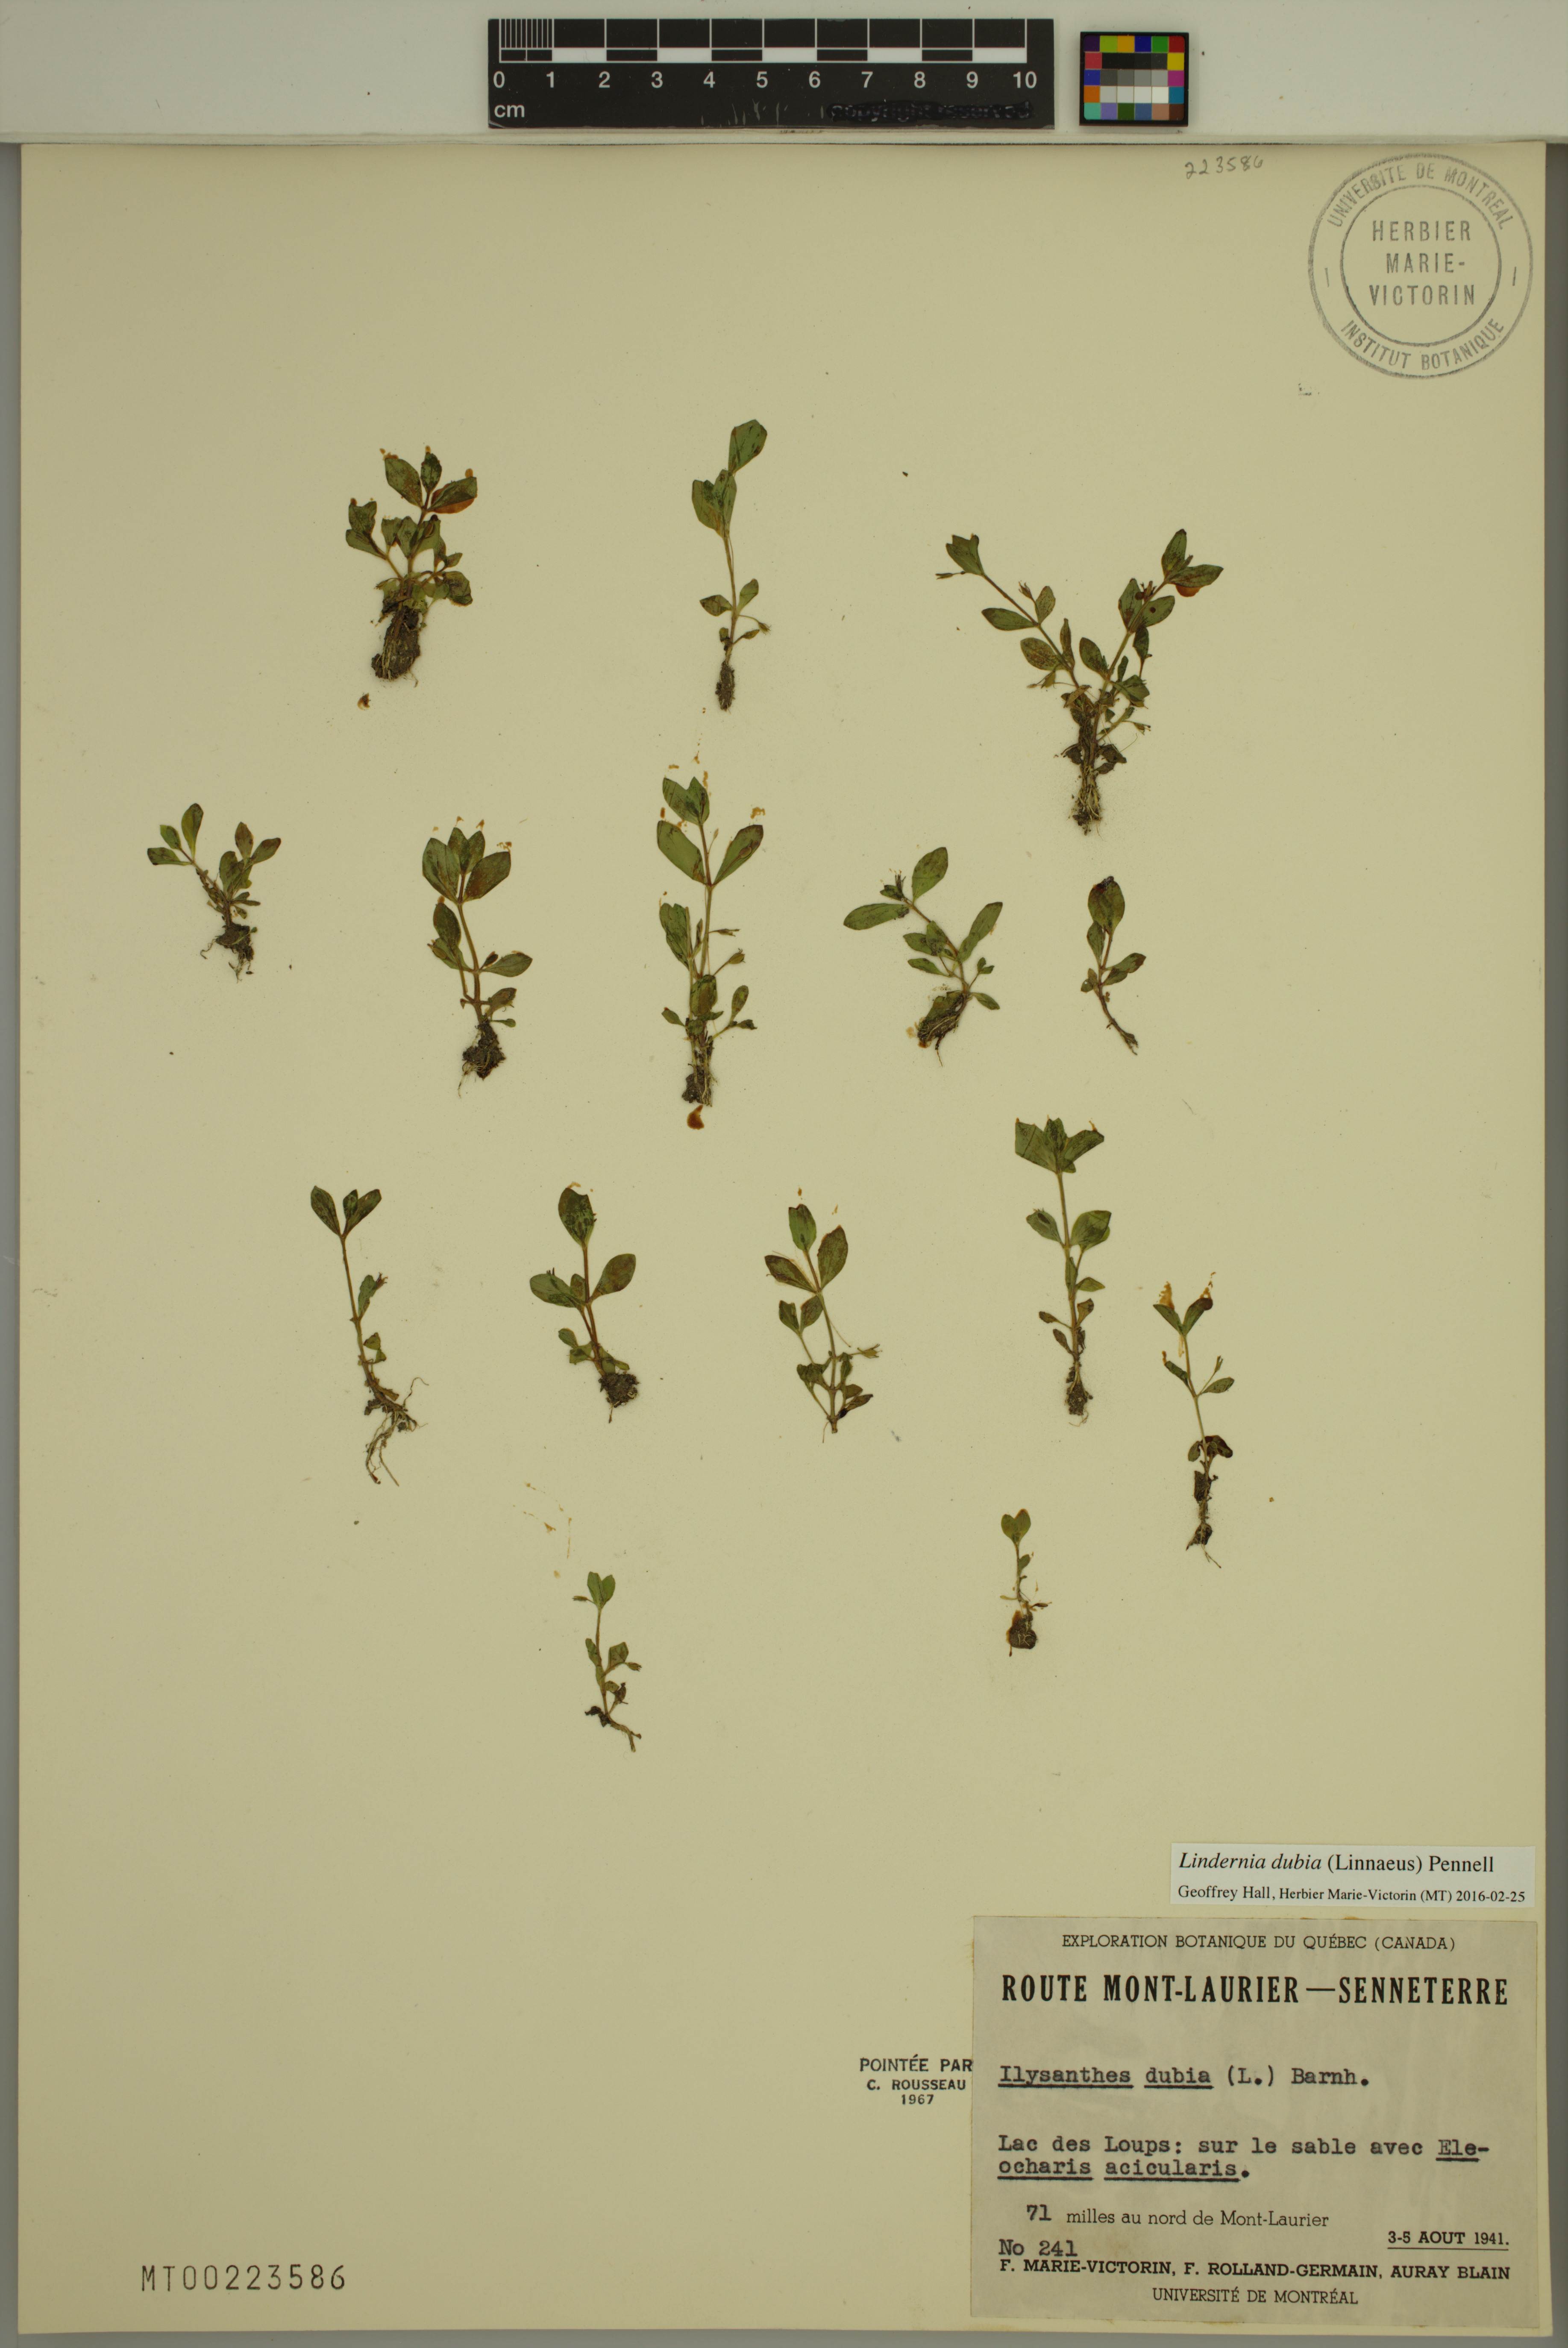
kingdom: Plantae
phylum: Tracheophyta
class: Magnoliopsida
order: Lamiales
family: Linderniaceae
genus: Lindernia
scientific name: Lindernia dubia
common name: Annual false pimpernel
